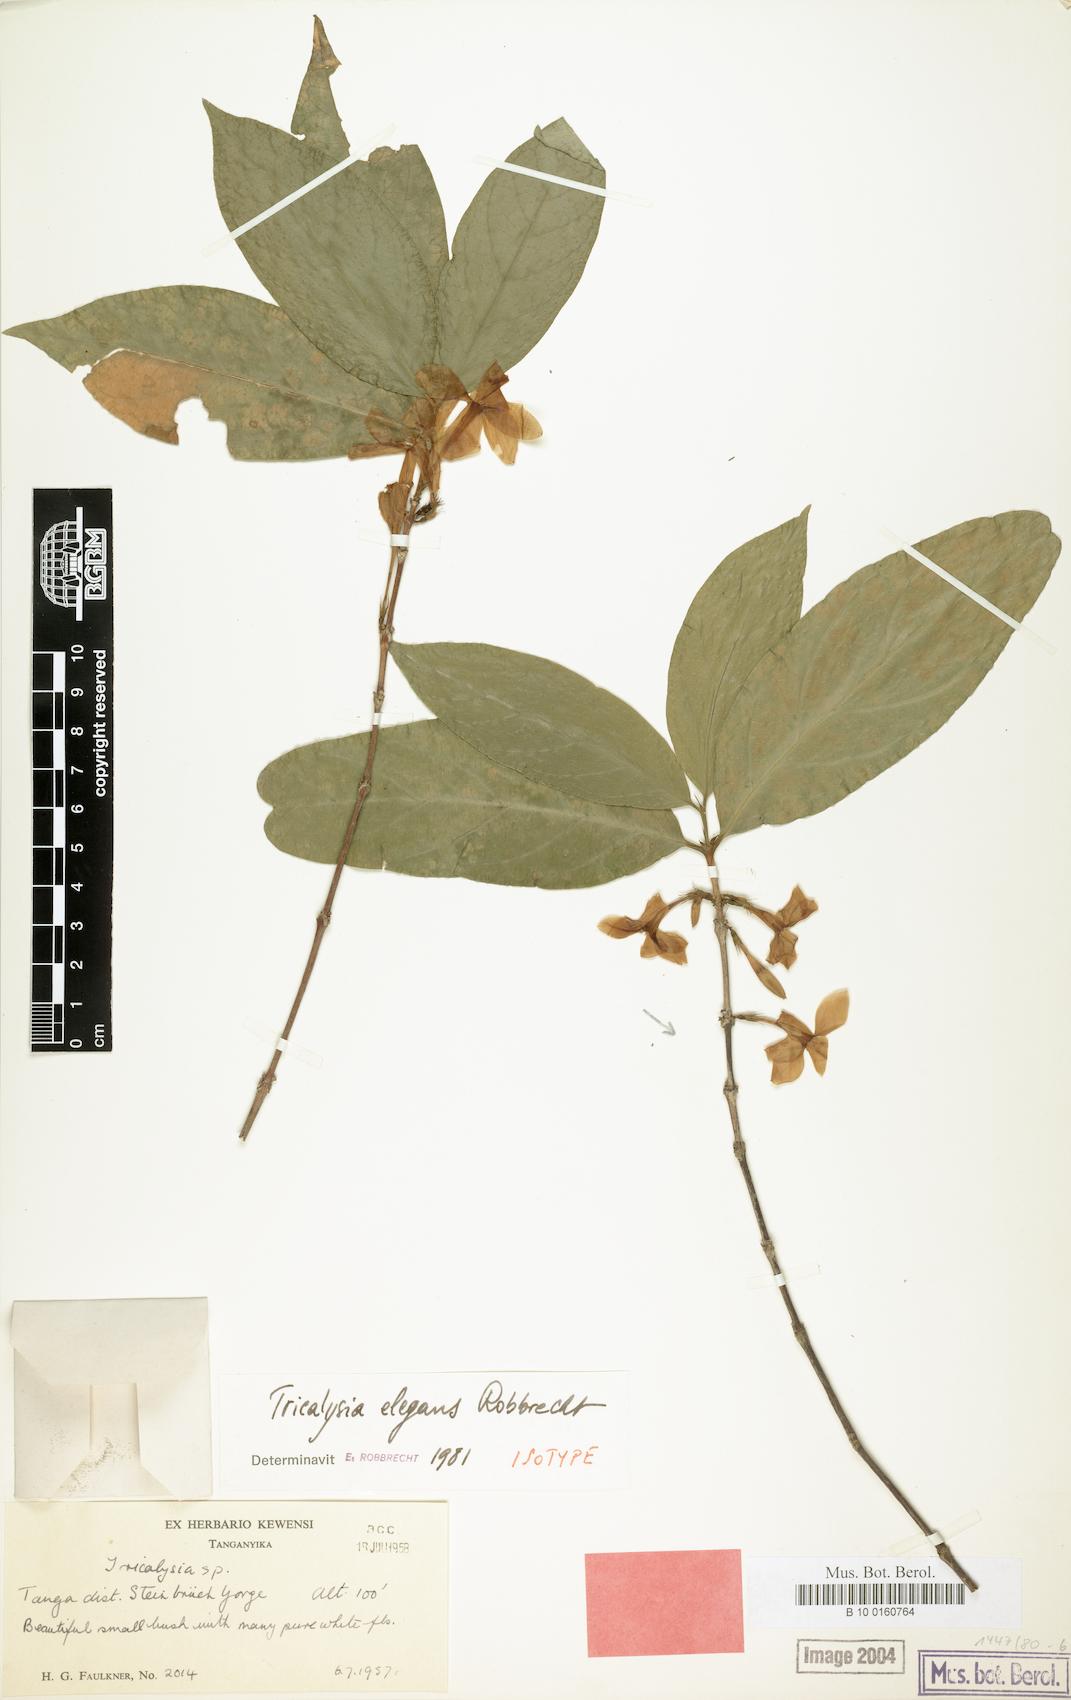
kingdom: Plantae
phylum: Tracheophyta
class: Magnoliopsida
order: Gentianales
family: Rubiaceae
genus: Tricalysia
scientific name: Tricalysia elegans
